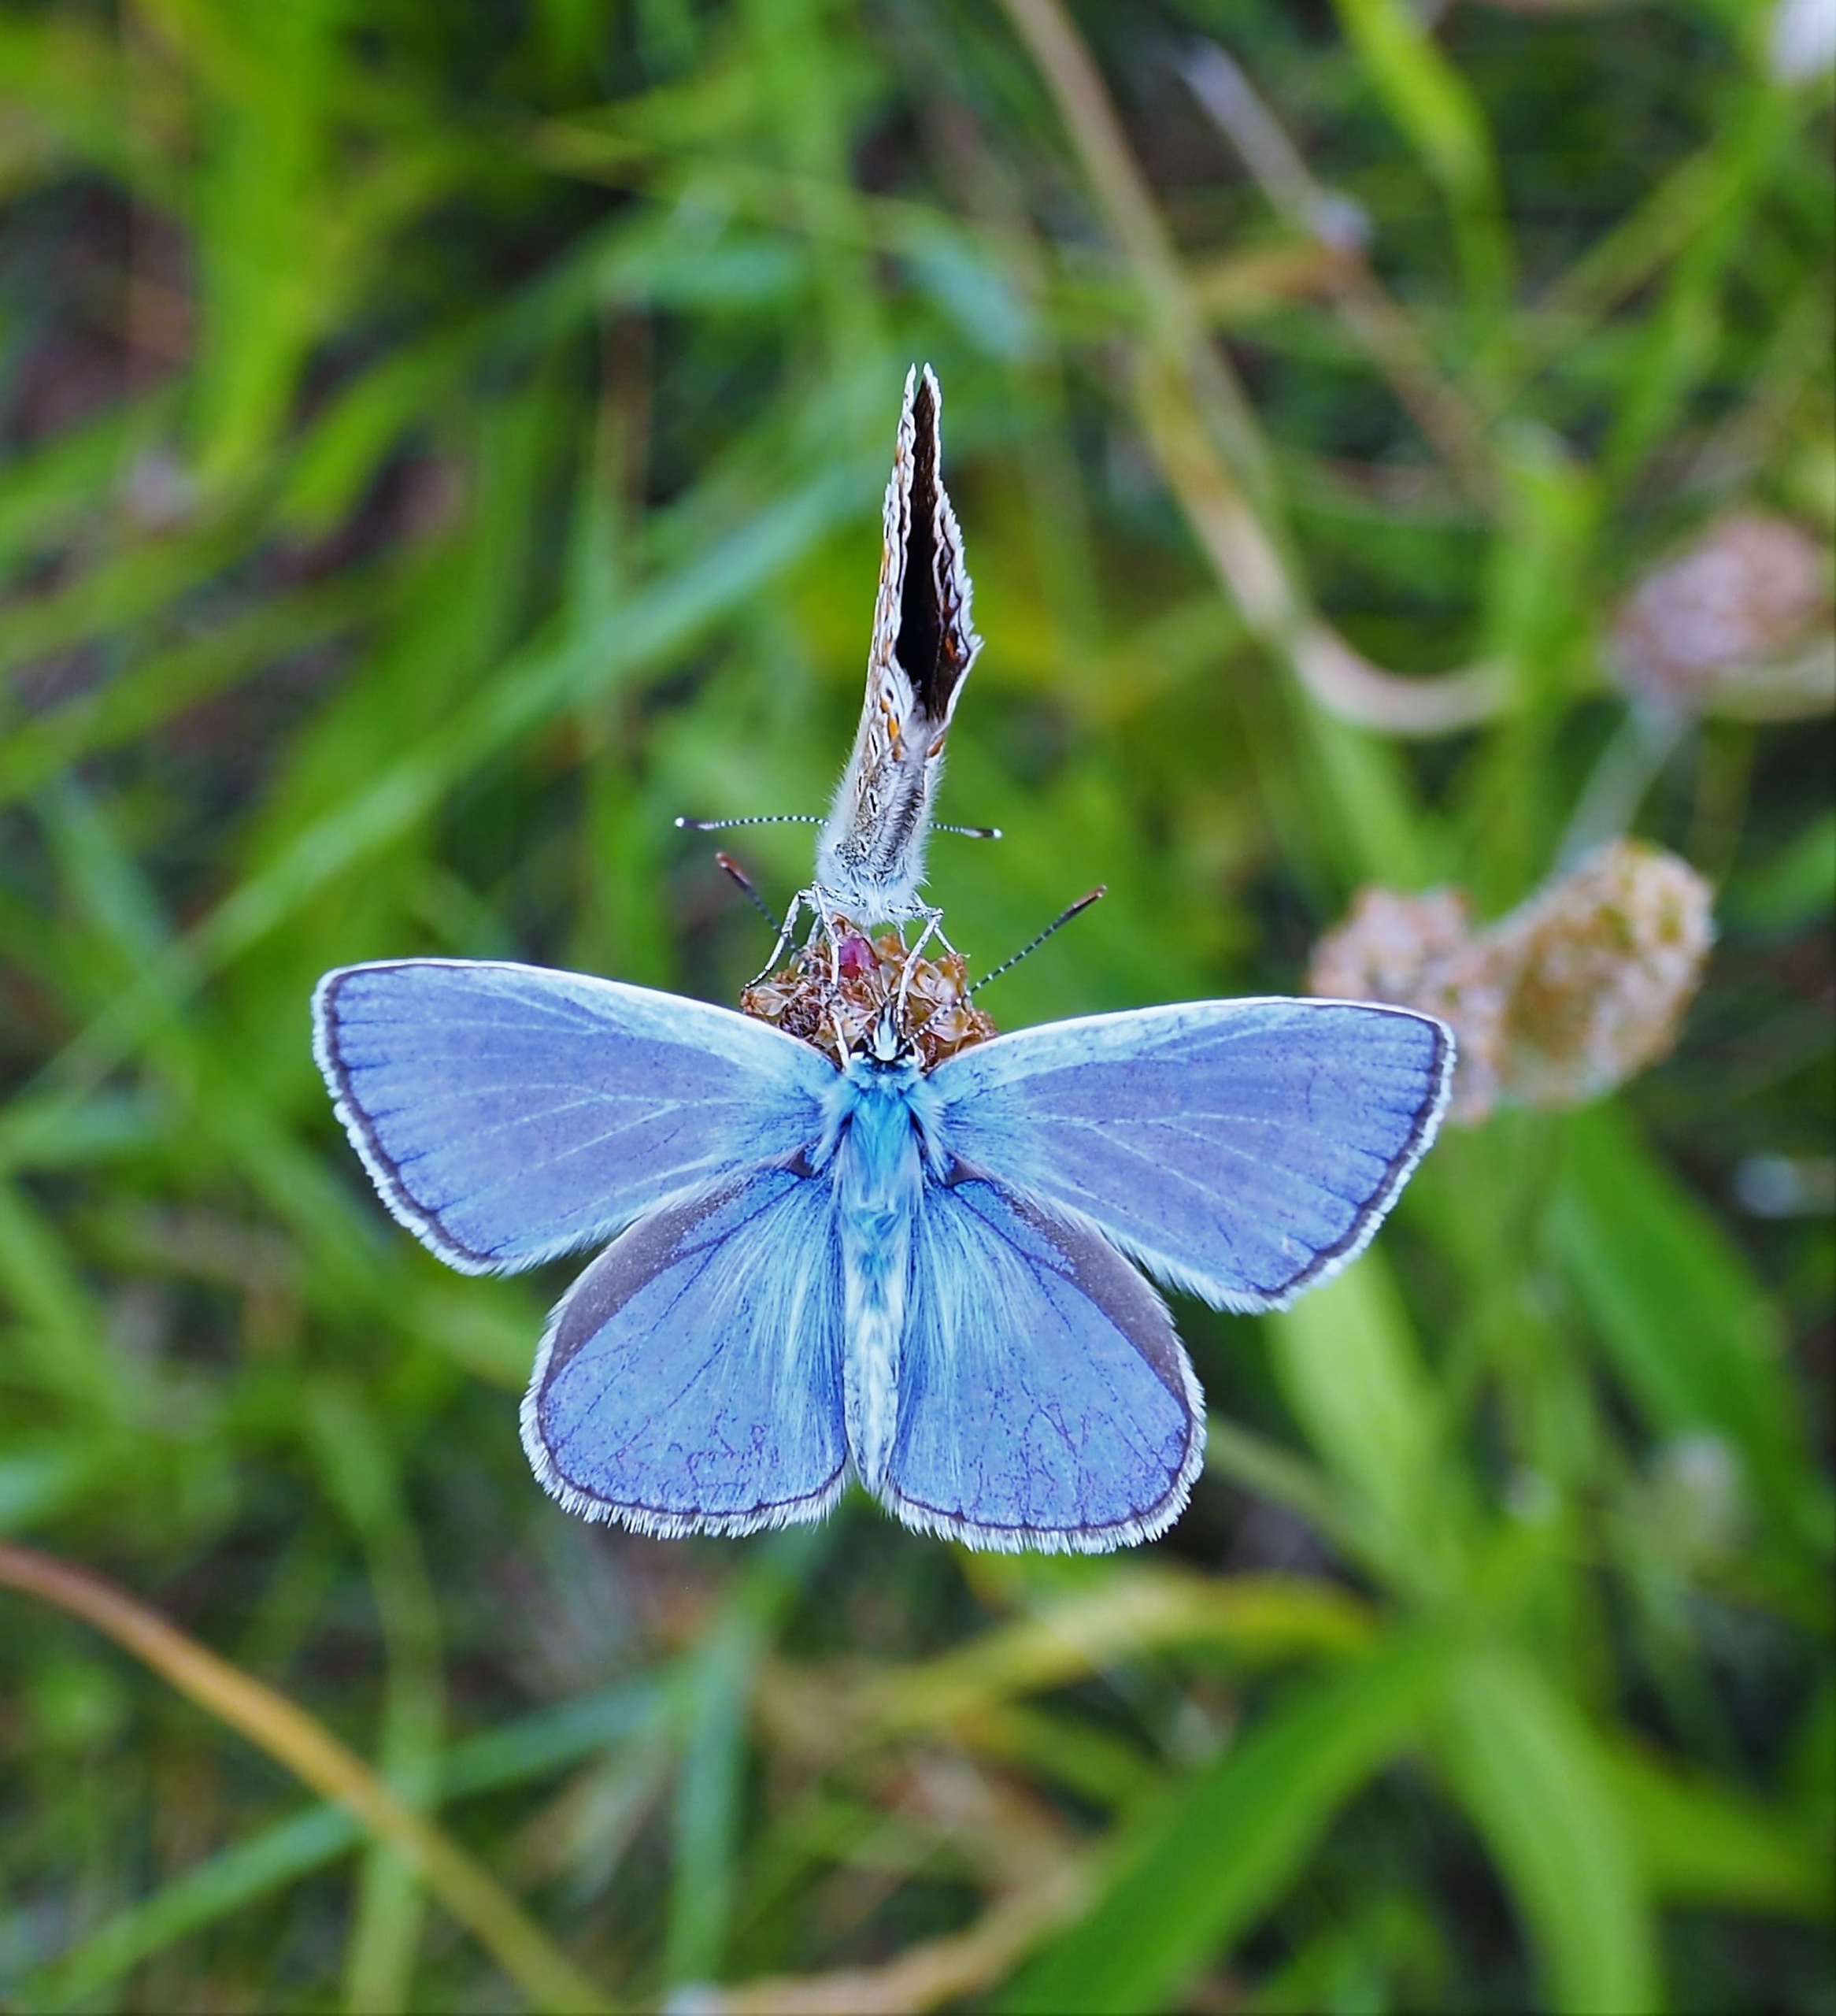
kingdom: Animalia
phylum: Arthropoda
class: Insecta
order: Lepidoptera
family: Lycaenidae
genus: Polyommatus
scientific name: Polyommatus icarus
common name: Almindelig blåfugl
